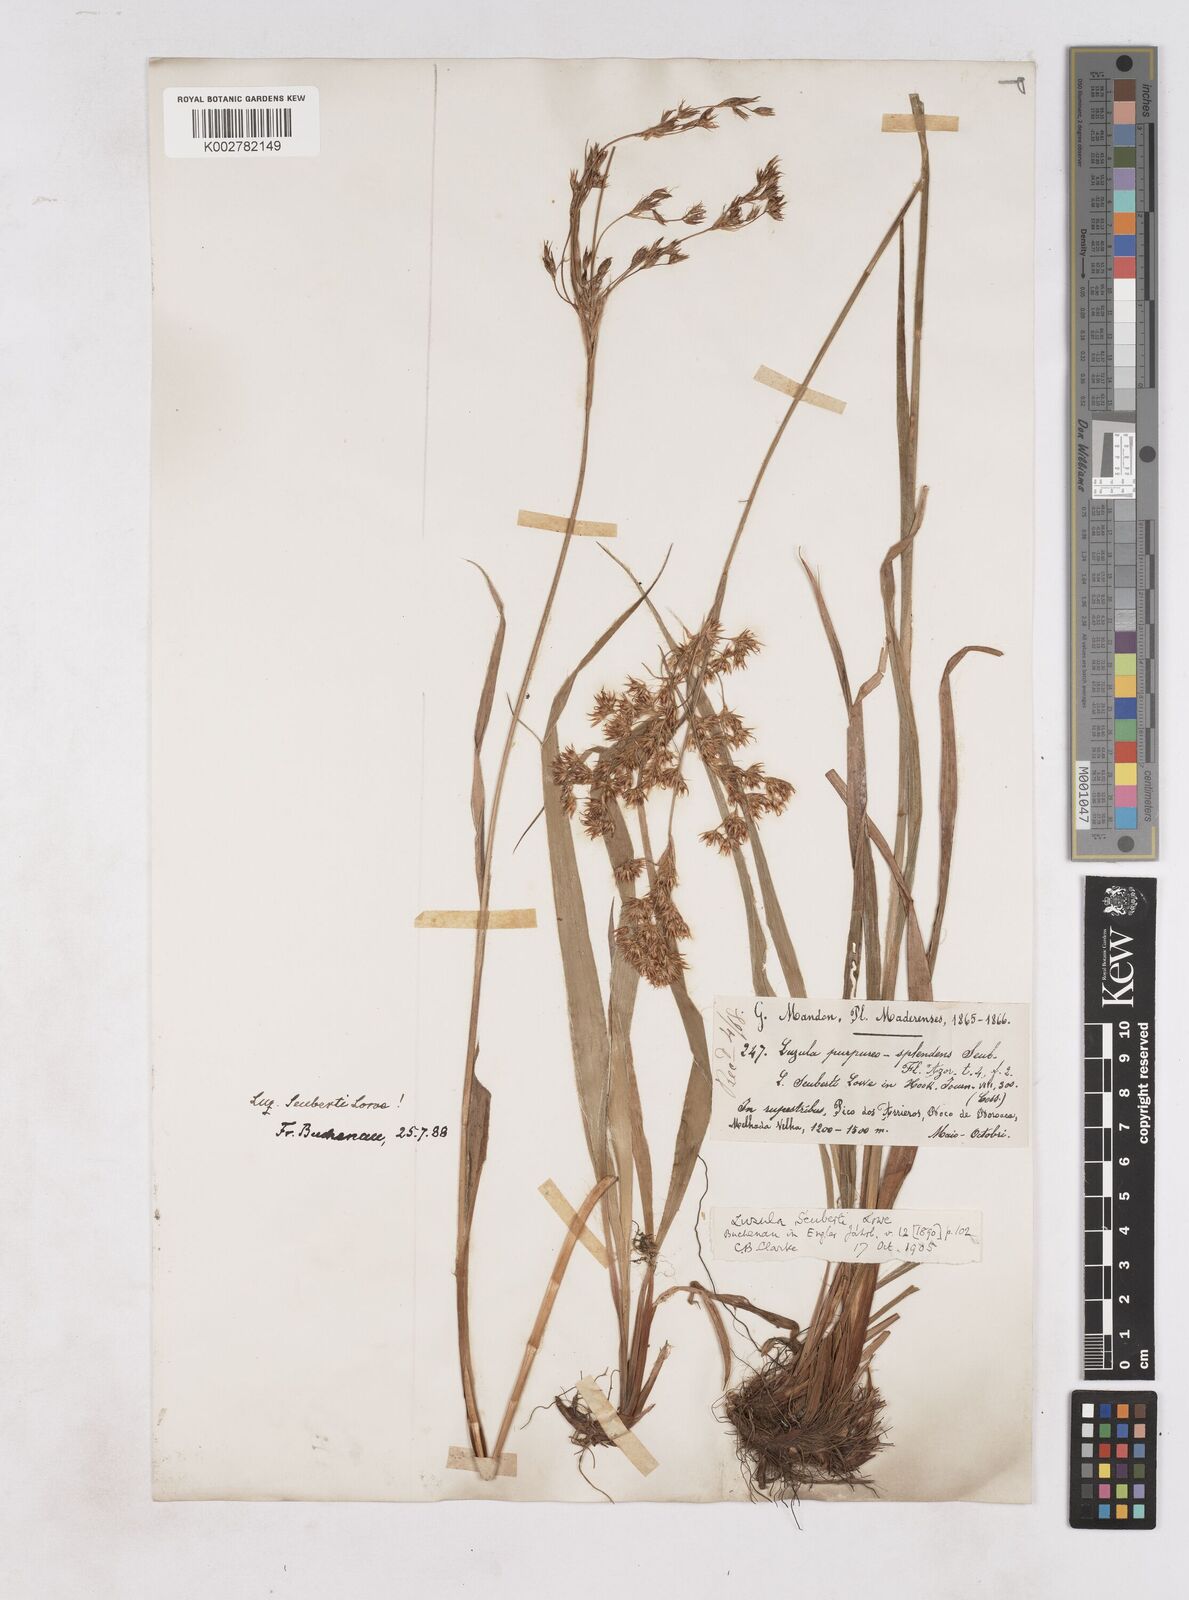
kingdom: Plantae
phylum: Tracheophyta
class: Liliopsida
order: Poales
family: Juncaceae
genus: Luzula
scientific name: Luzula seubertii
